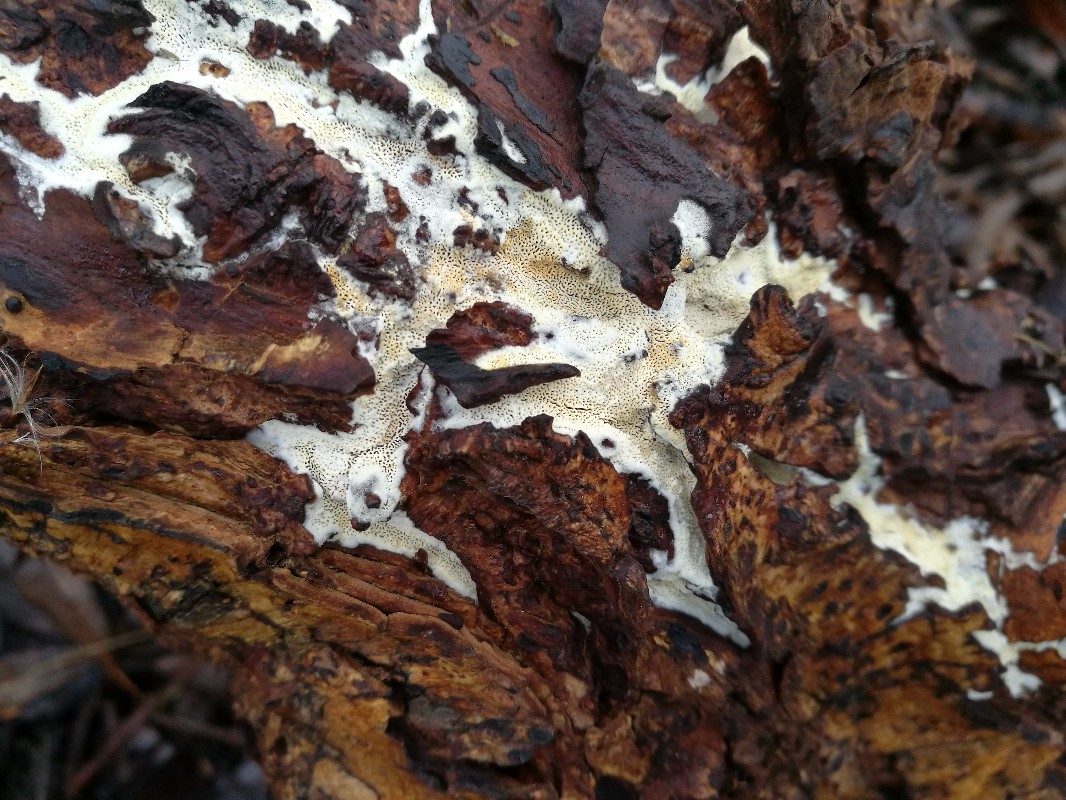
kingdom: Fungi
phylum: Basidiomycota
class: Agaricomycetes
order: Polyporales
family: Irpicaceae
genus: Resiniporus
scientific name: Resiniporus resinascens
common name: trist pastelporesvamp
